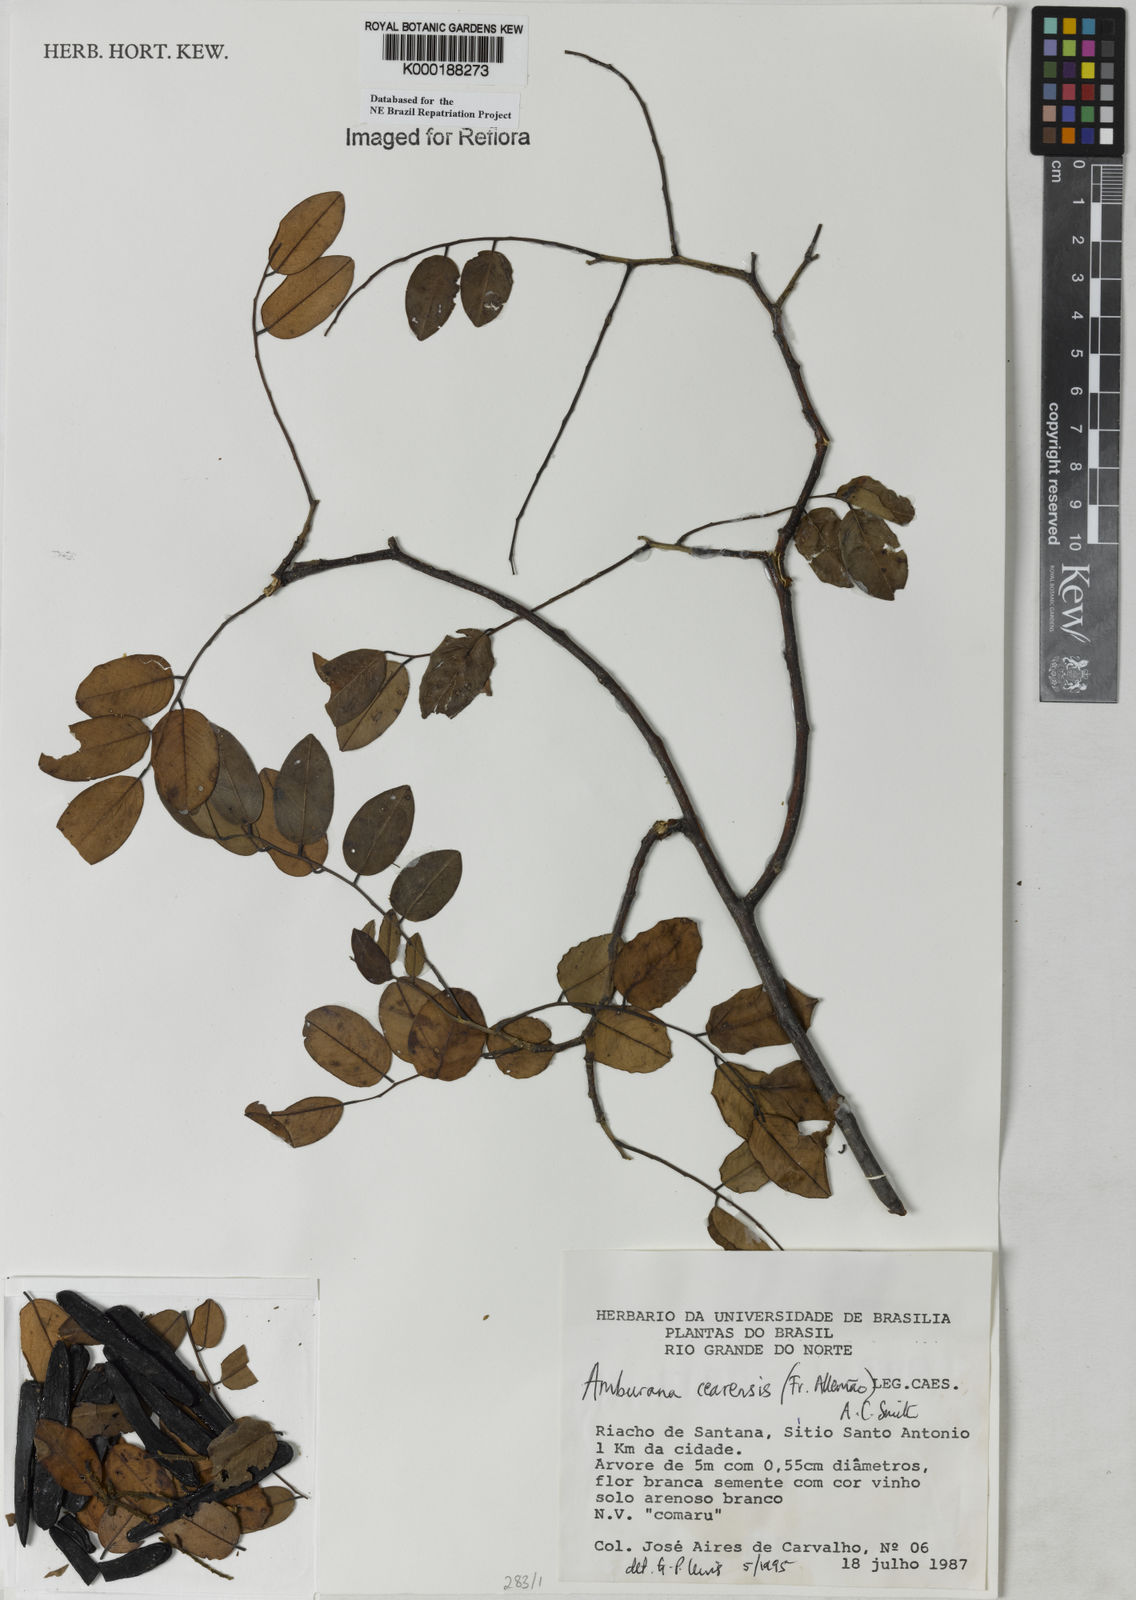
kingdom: Plantae
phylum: Tracheophyta
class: Magnoliopsida
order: Fabales
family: Fabaceae
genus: Amburana
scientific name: Amburana
